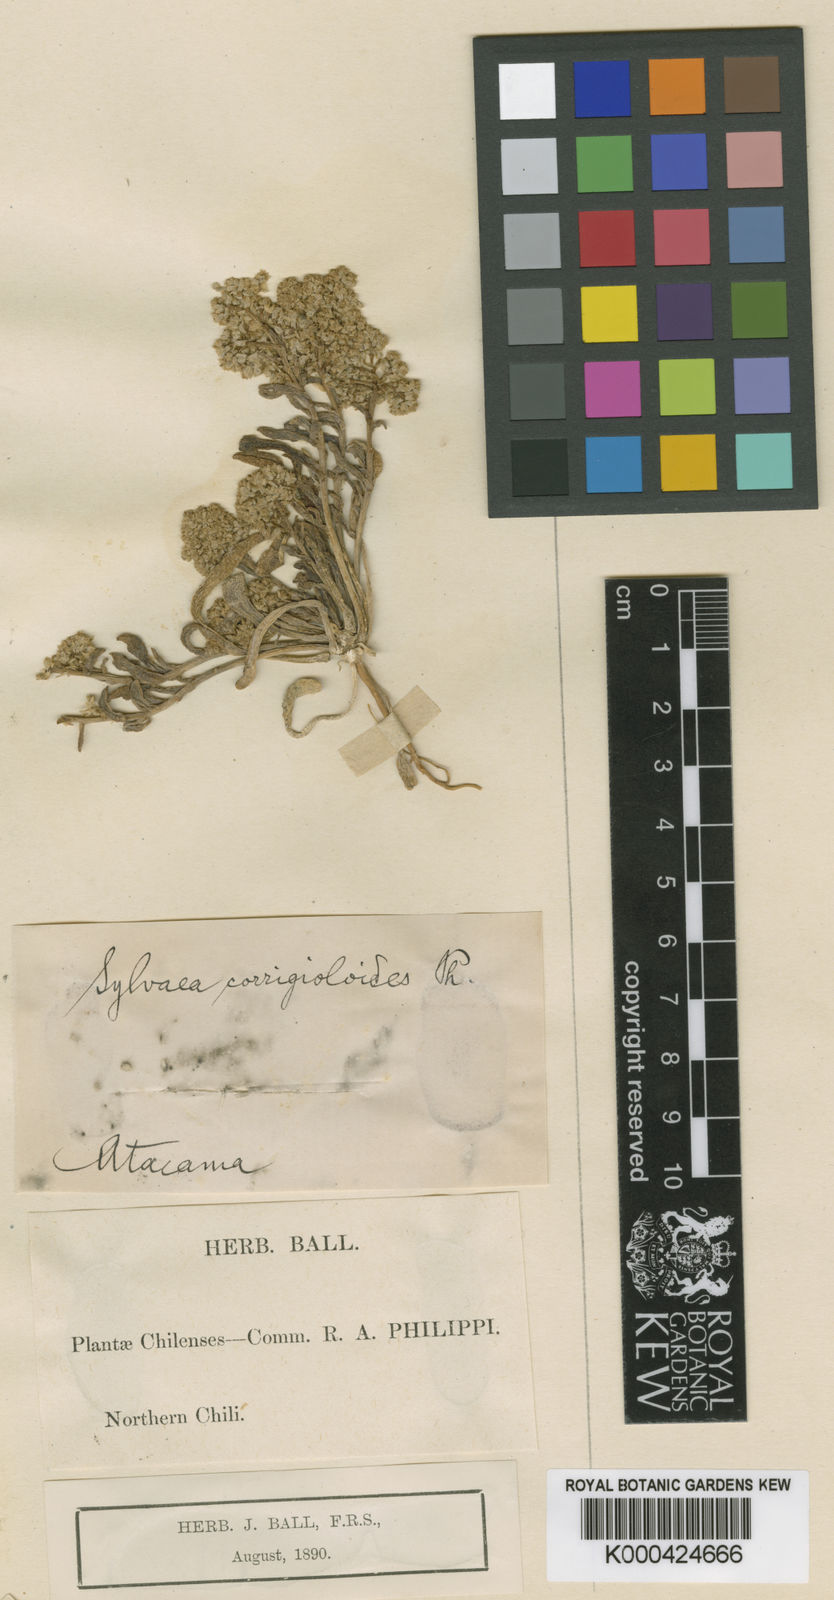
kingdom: Plantae
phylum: Tracheophyta
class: Magnoliopsida
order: Caryophyllales
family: Montiaceae
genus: Philippiamra
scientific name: Philippiamra amarantoides
